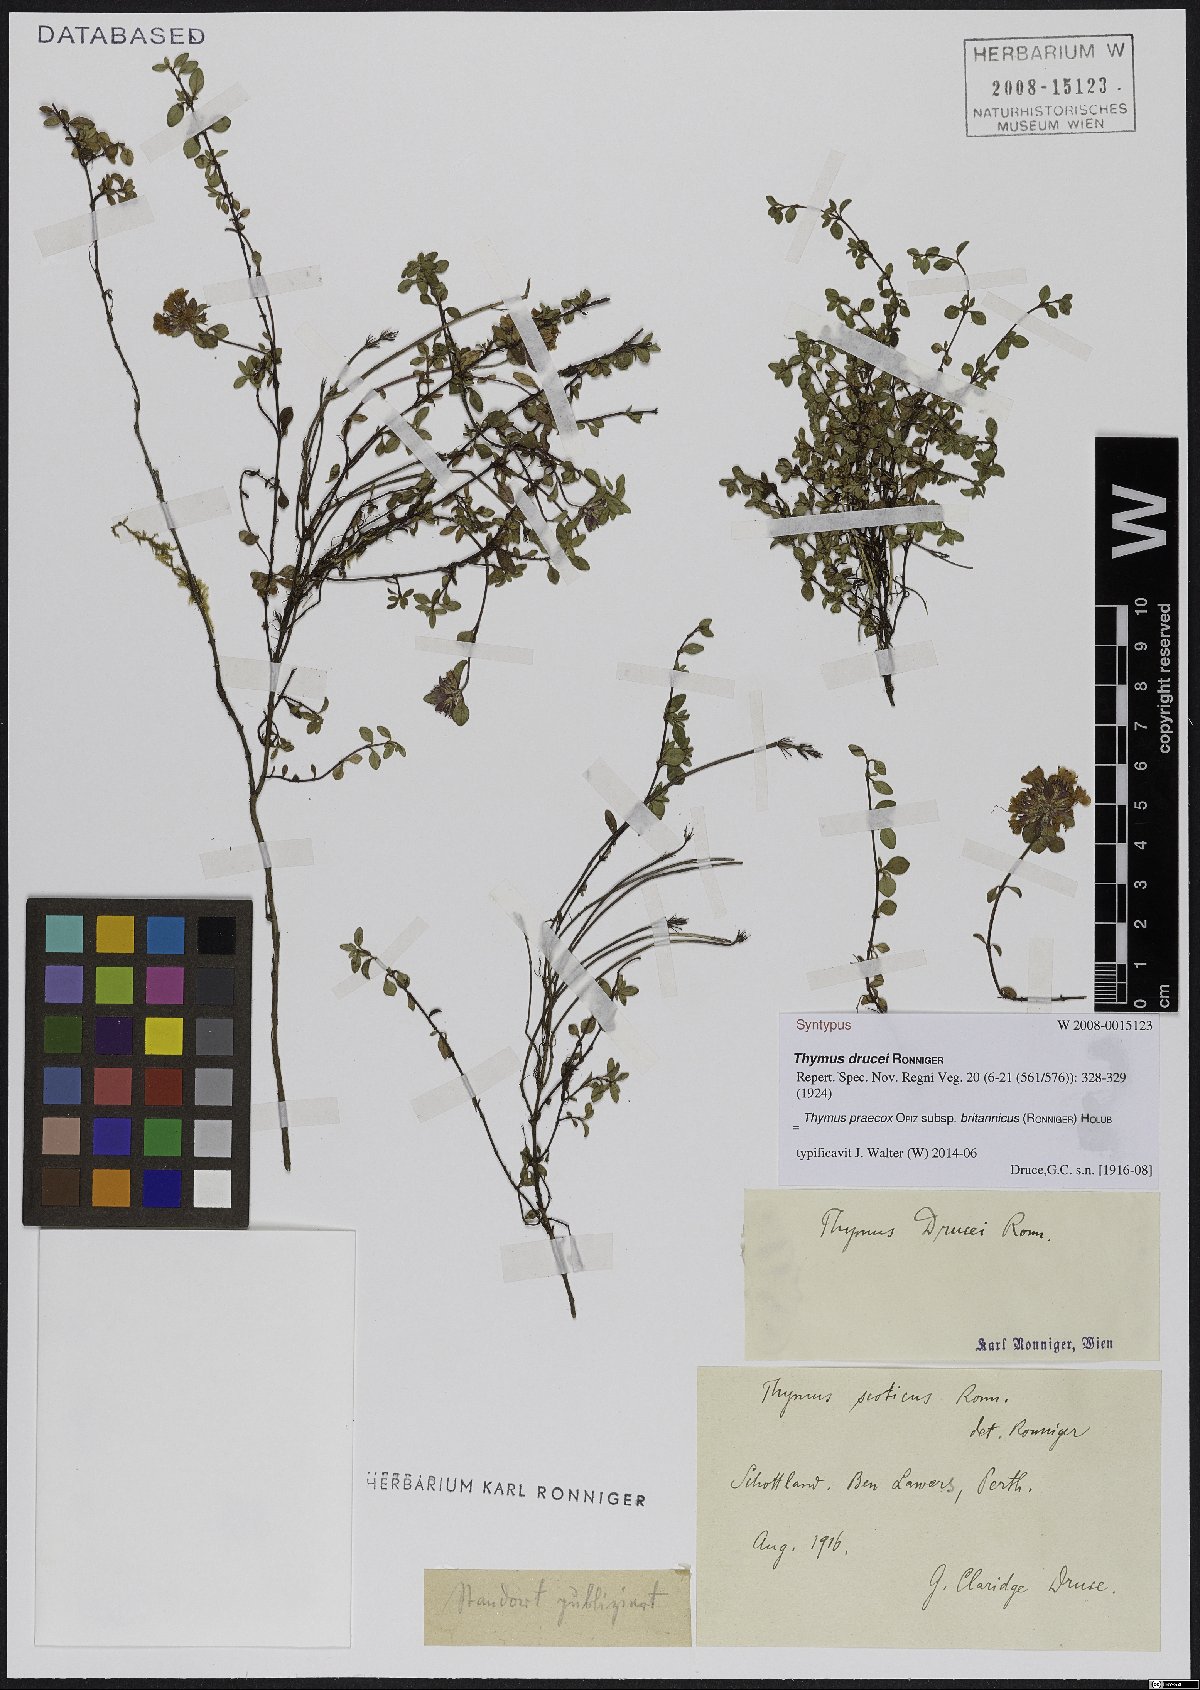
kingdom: Plantae
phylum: Tracheophyta
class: Magnoliopsida
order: Lamiales
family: Lamiaceae
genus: Thymus
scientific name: Thymus praecox
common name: Wild thyme
